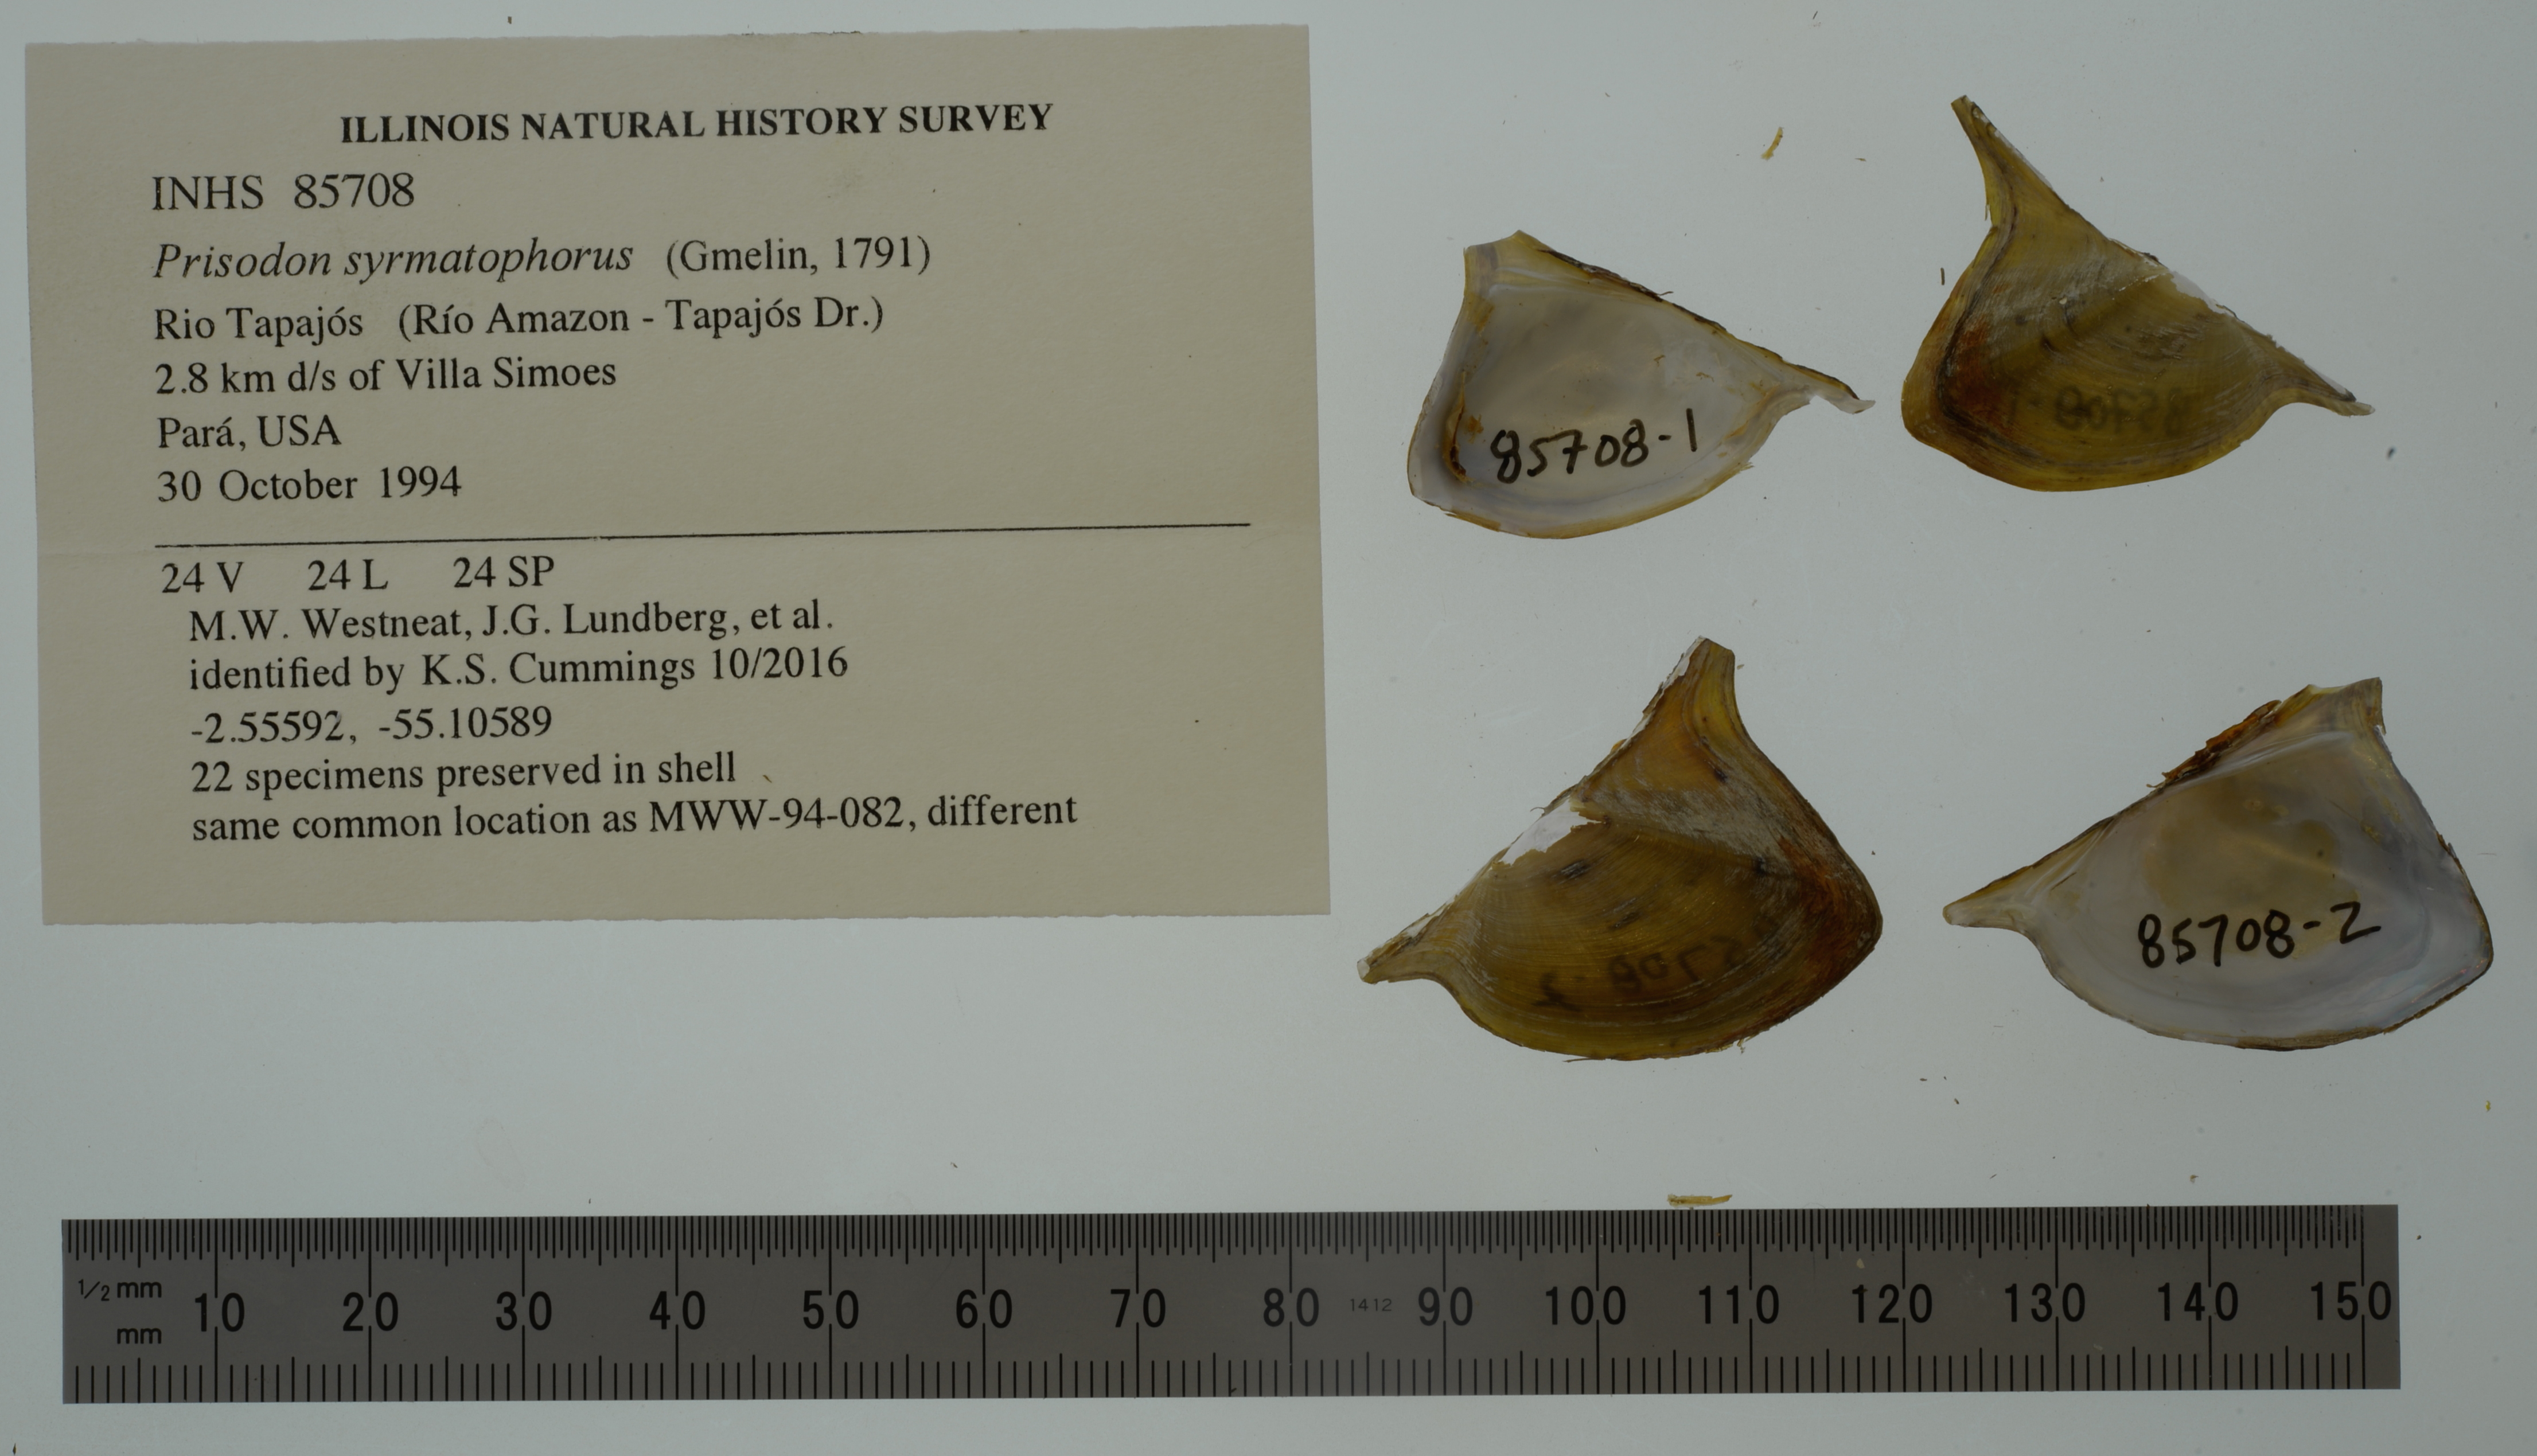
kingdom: Animalia
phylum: Mollusca
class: Bivalvia
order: Unionida
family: Hyriidae
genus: Prisodon
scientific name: Prisodon syrmatophorus
